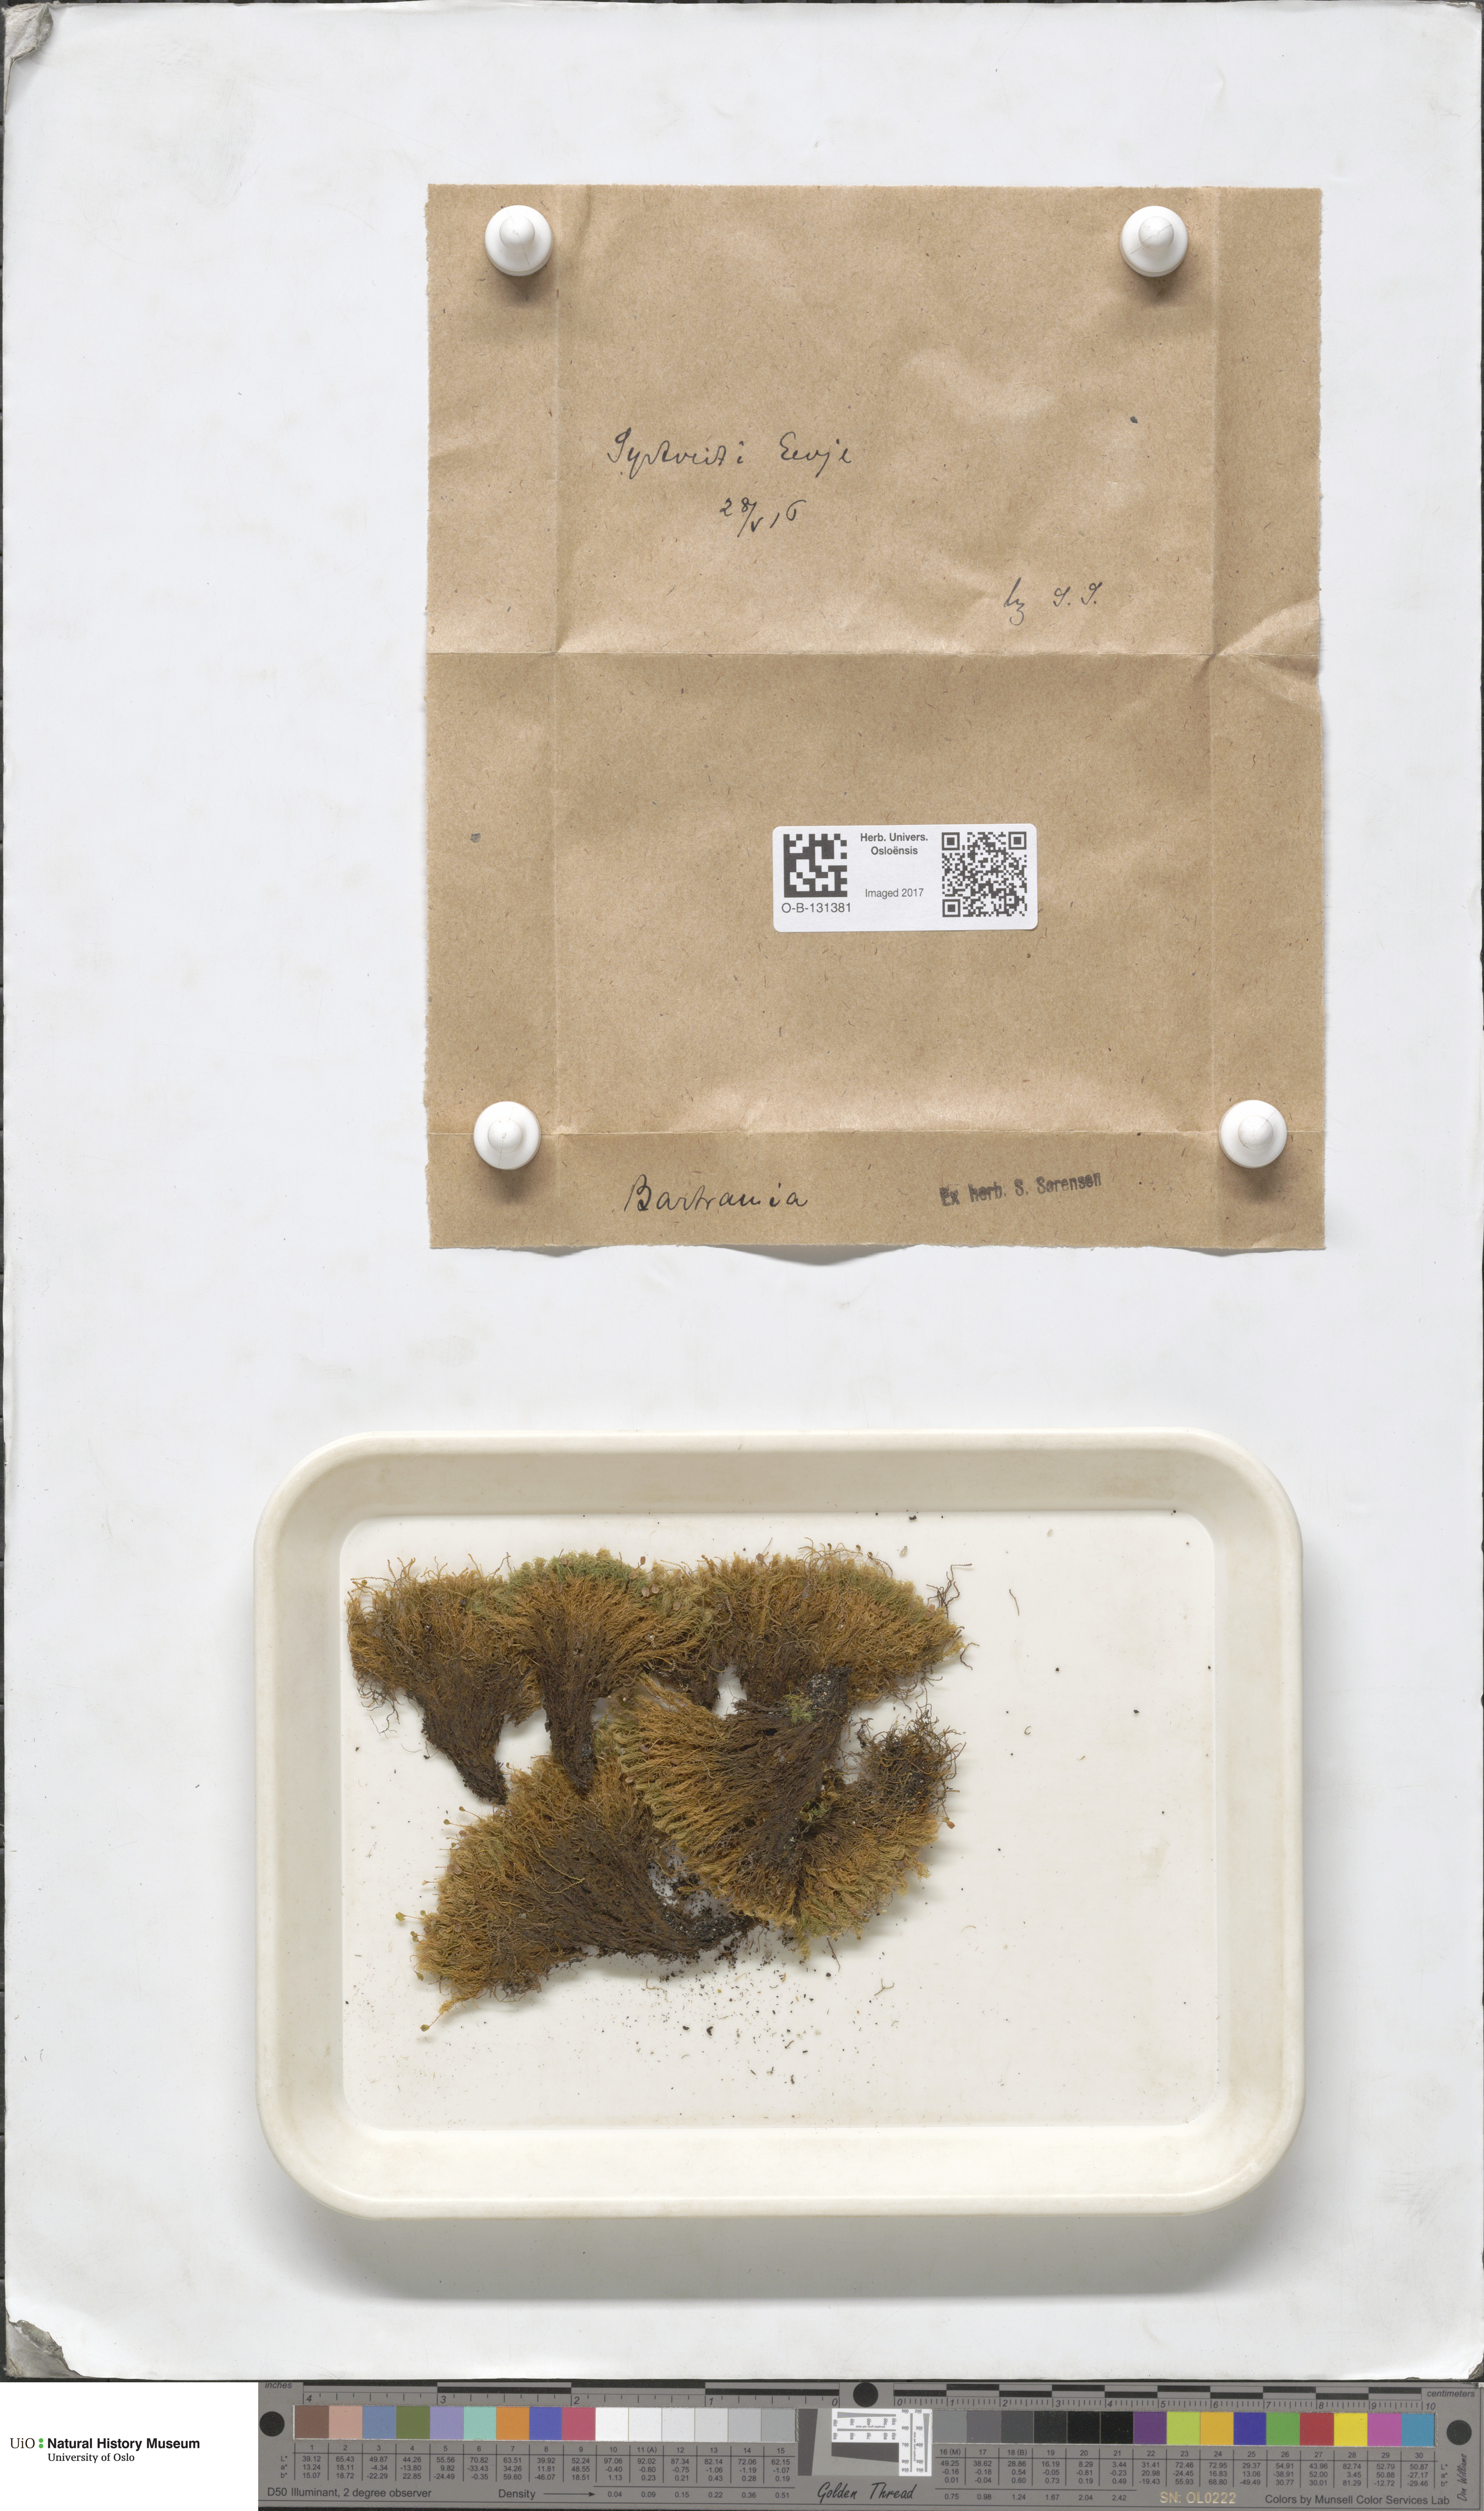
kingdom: Plantae
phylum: Bryophyta
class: Bryopsida
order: Bartramiales
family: Bartramiaceae
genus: Bartramia
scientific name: Bartramia
